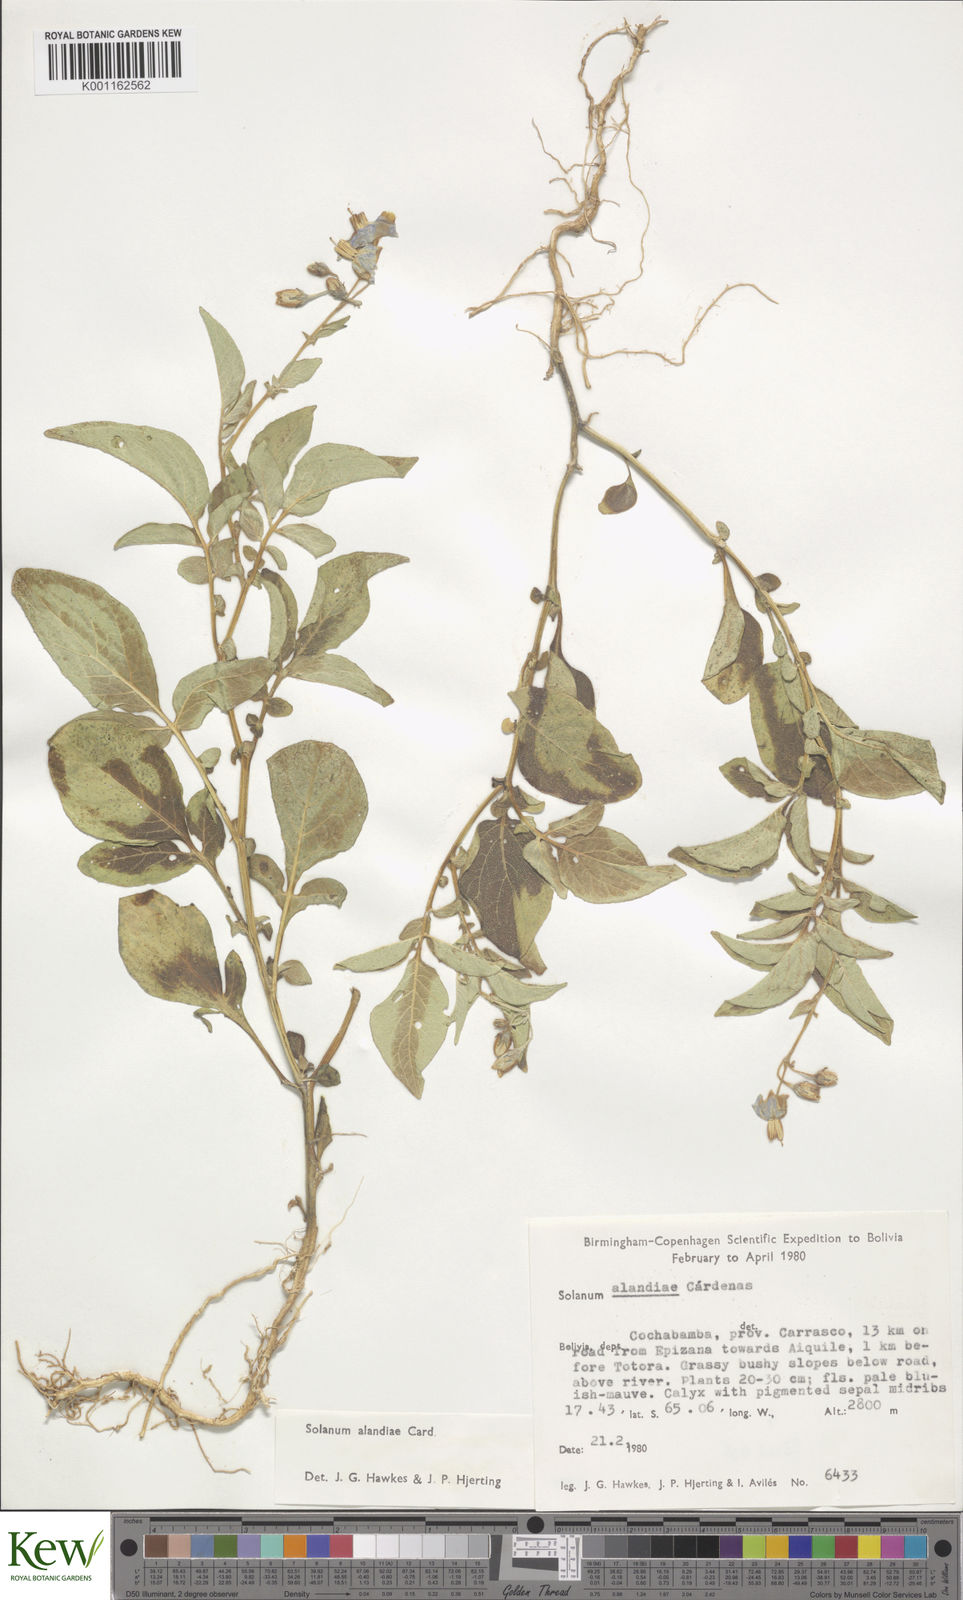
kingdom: Plantae
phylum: Tracheophyta
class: Magnoliopsida
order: Solanales
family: Solanaceae
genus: Solanum
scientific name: Solanum
